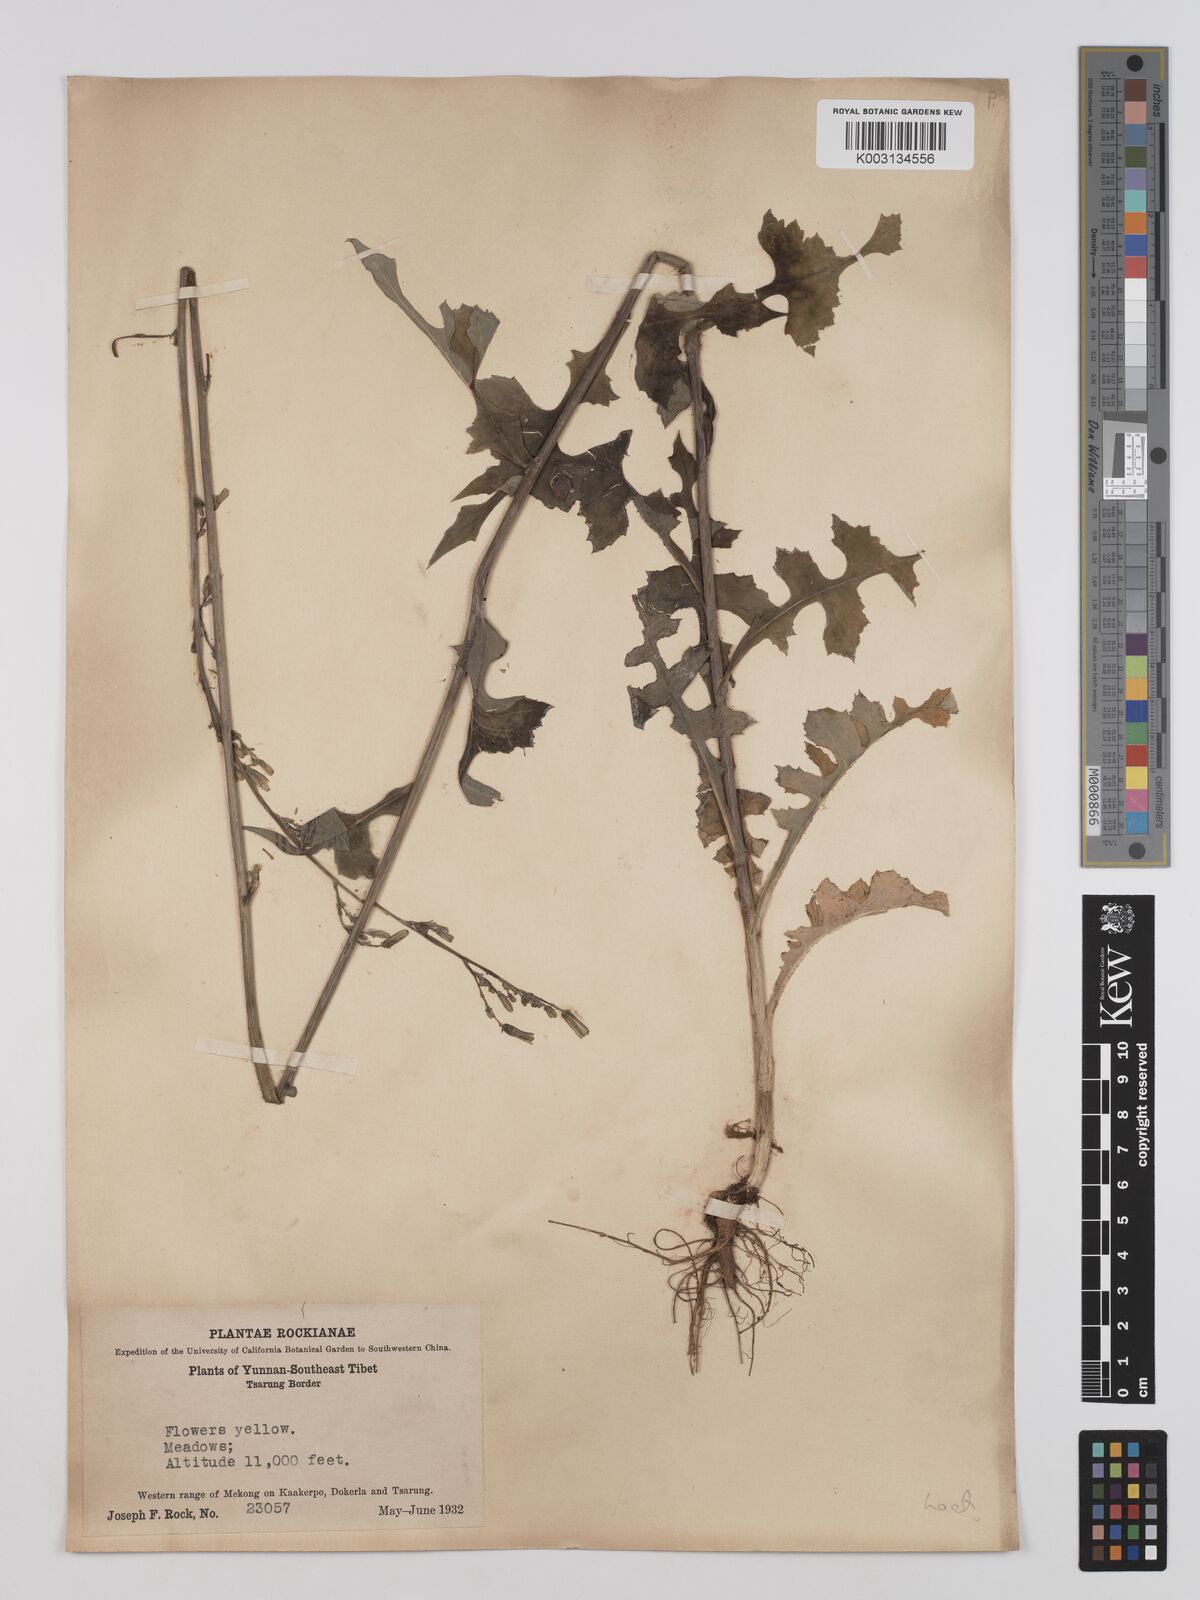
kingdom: Plantae
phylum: Tracheophyta
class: Magnoliopsida
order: Asterales
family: Asteraceae
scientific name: Asteraceae
